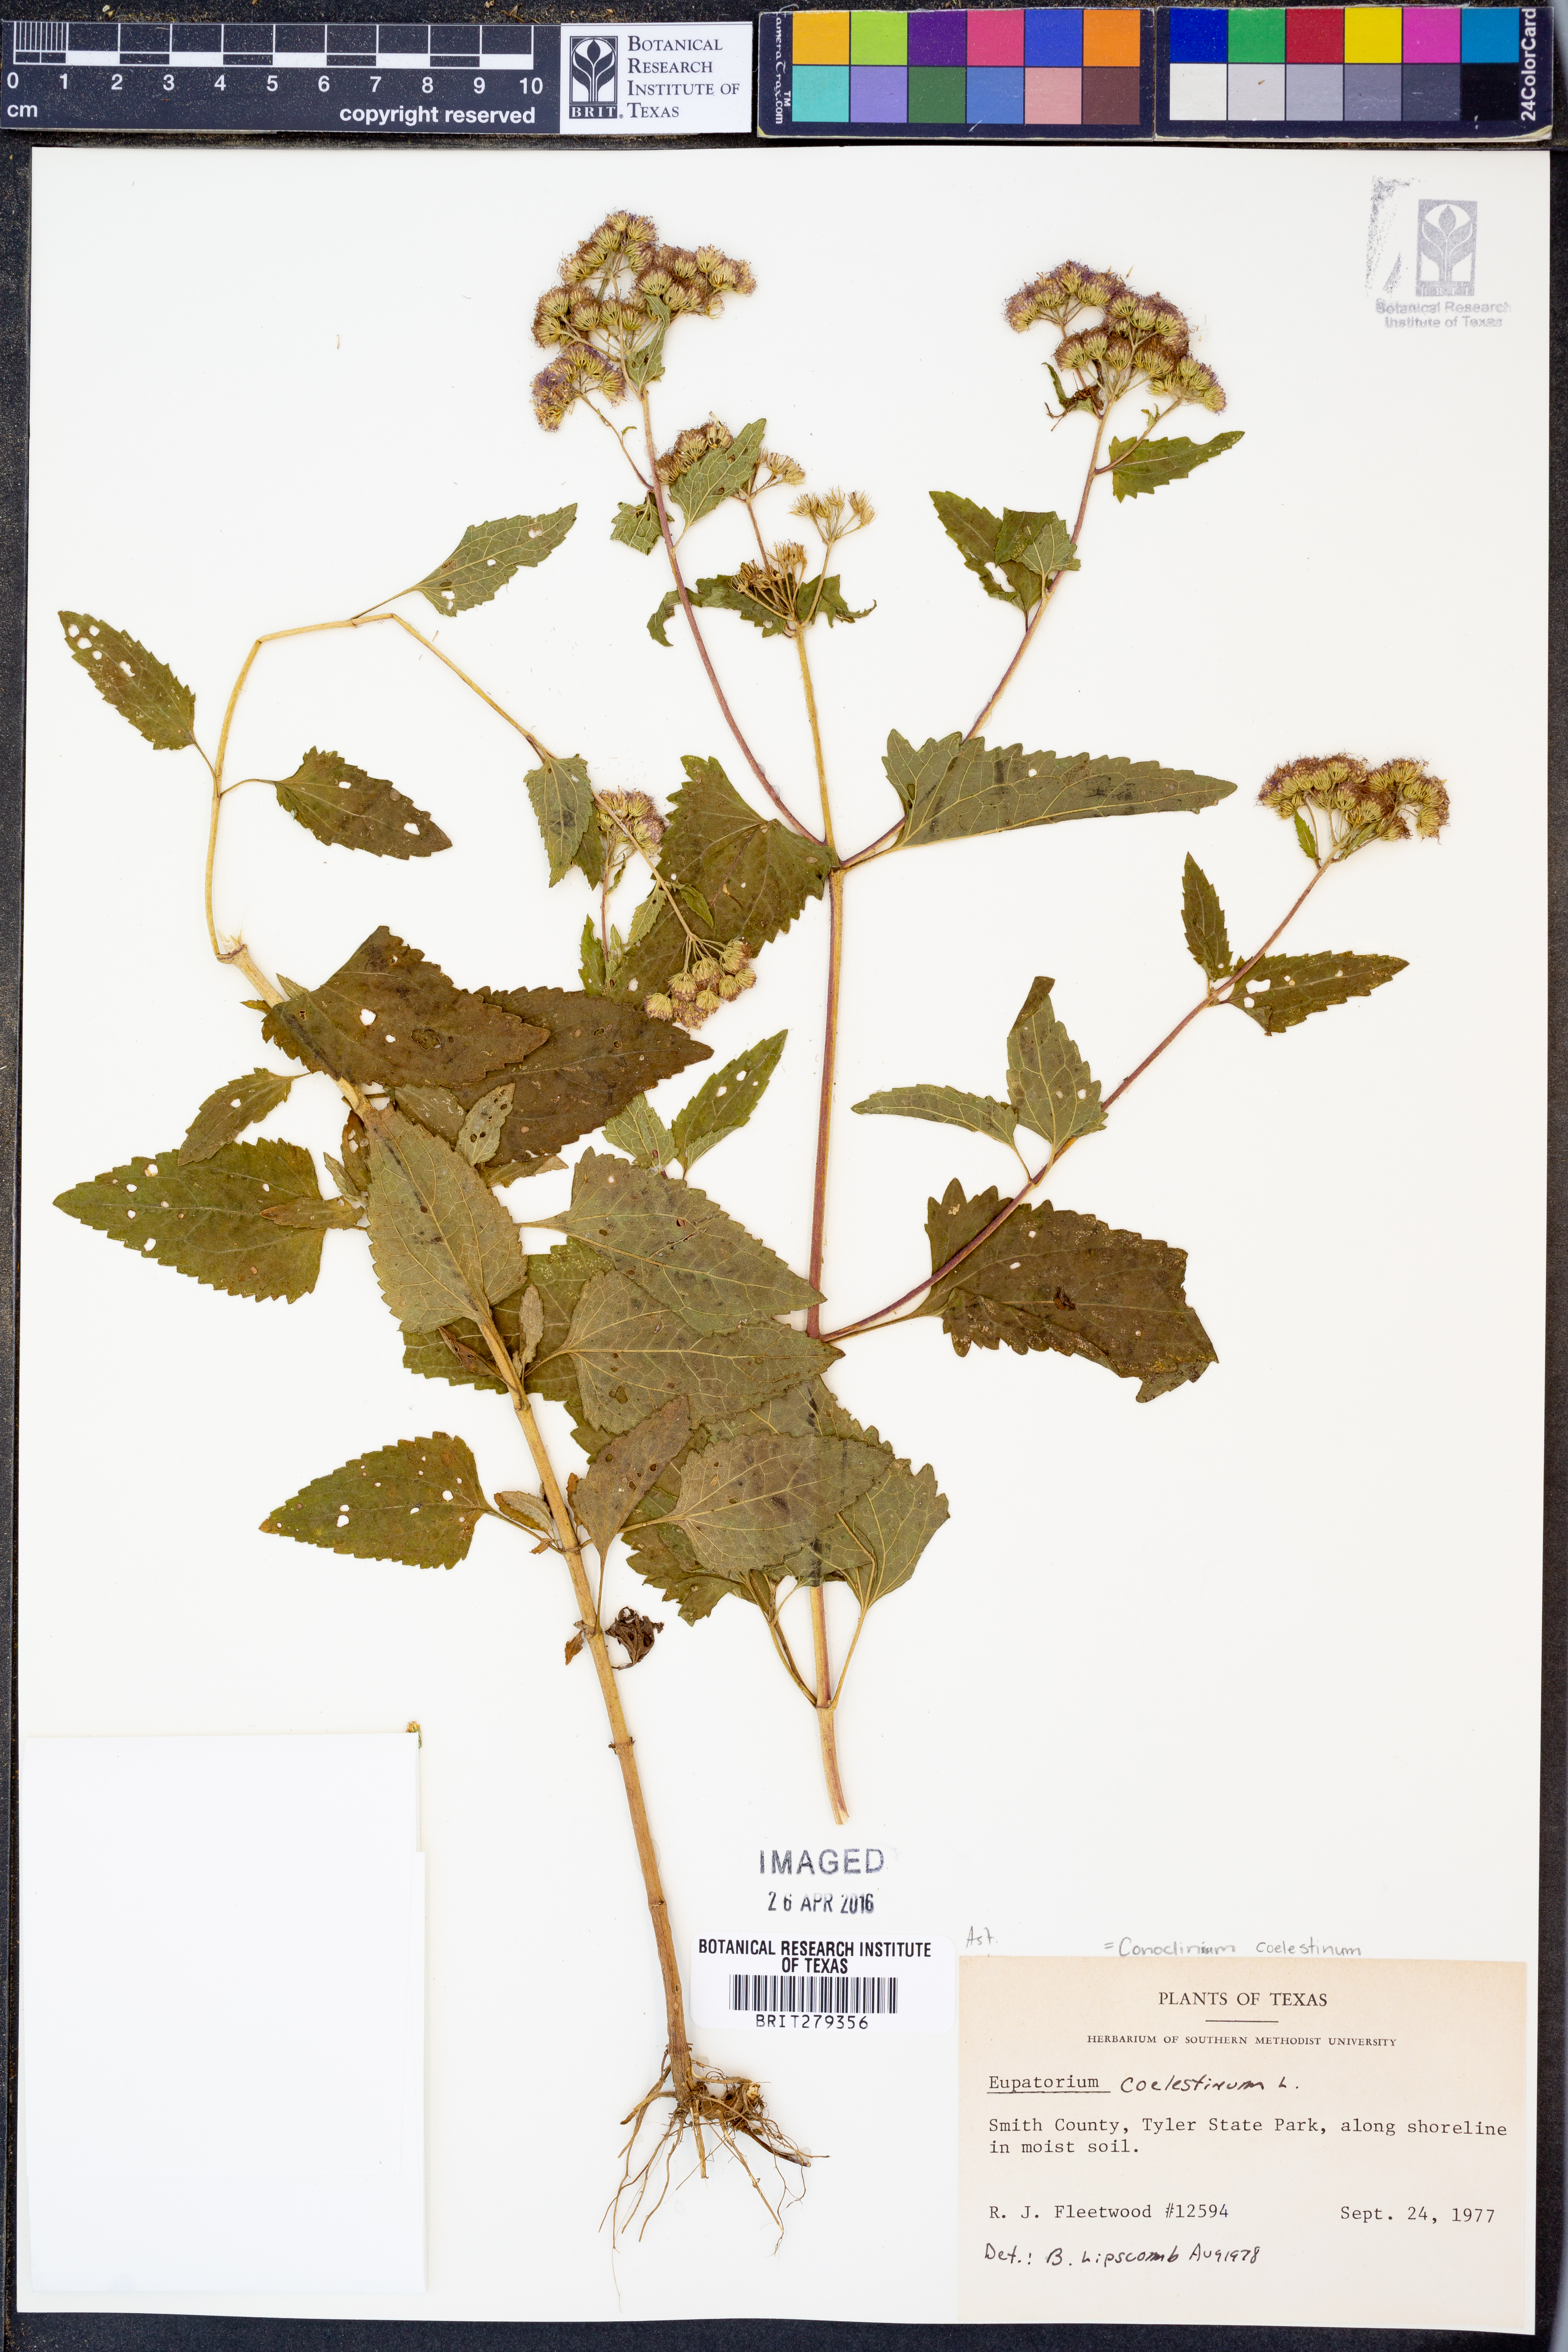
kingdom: Plantae
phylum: Tracheophyta
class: Magnoliopsida
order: Asterales
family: Asteraceae
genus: Conoclinium
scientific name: Conoclinium coelestinum
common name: Blue mistflower
